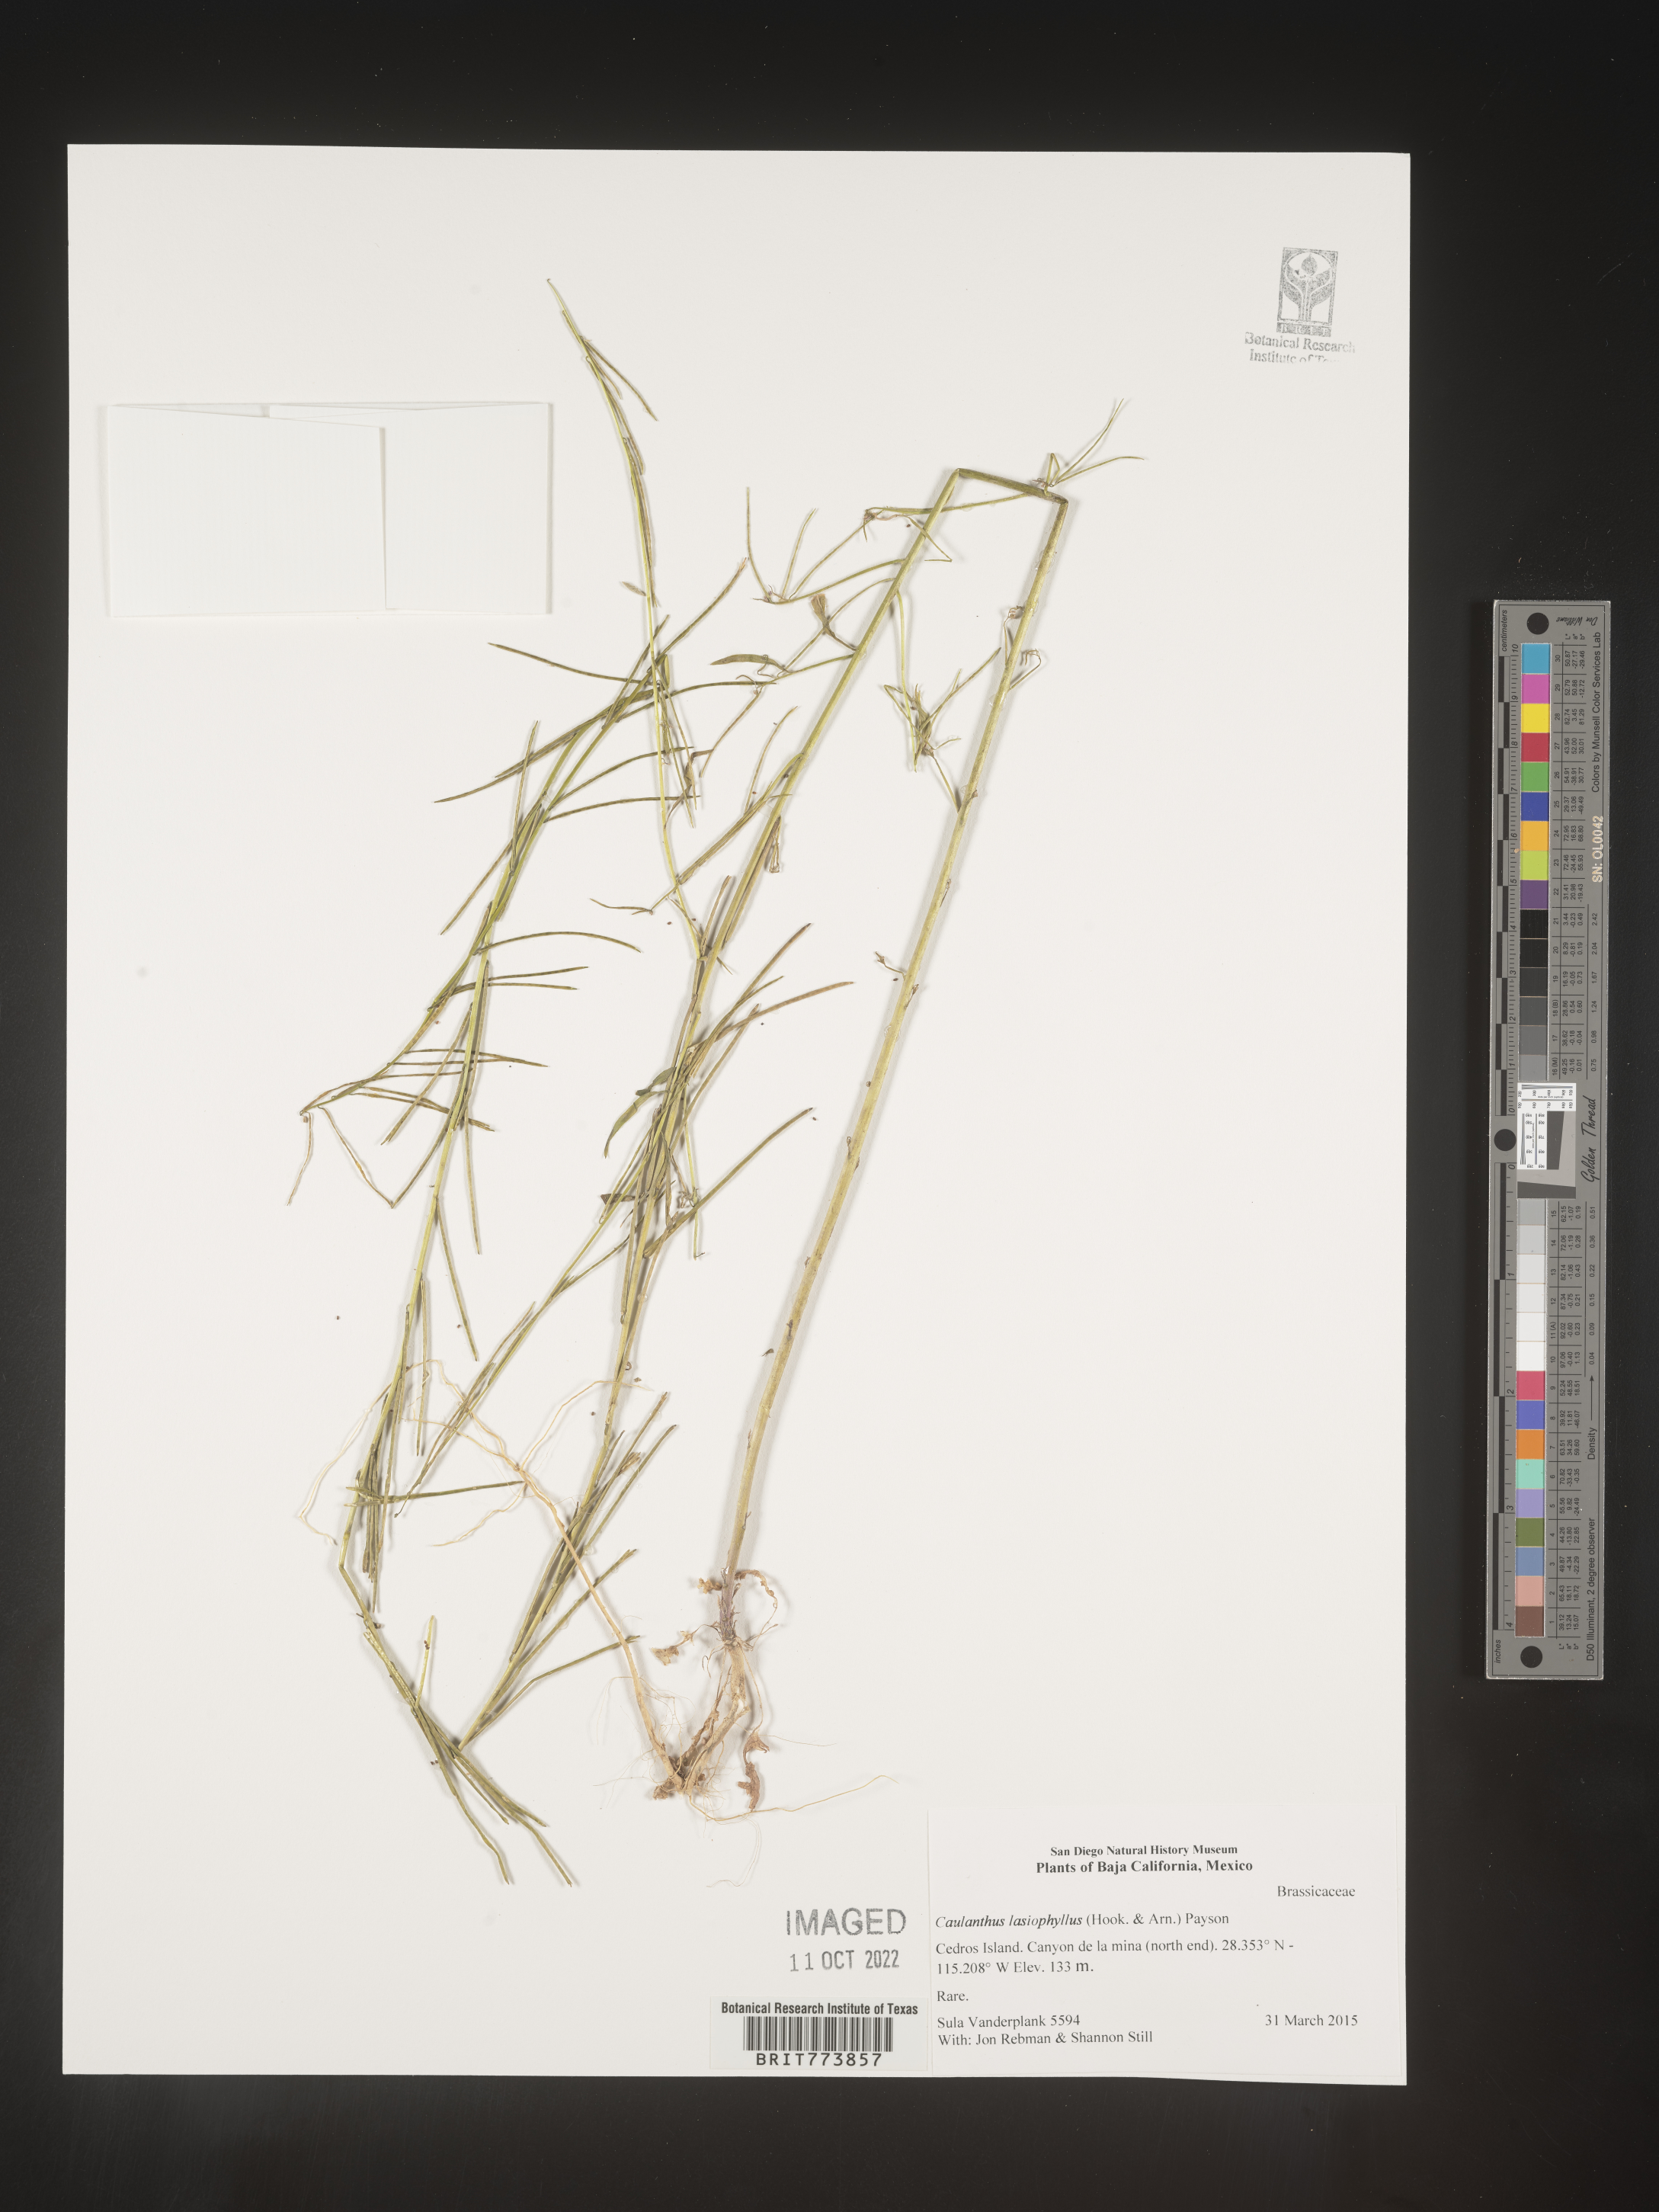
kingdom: Plantae
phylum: Tracheophyta
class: Magnoliopsida
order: Brassicales
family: Brassicaceae
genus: Streptanthus
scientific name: Streptanthus lasiophyllus
